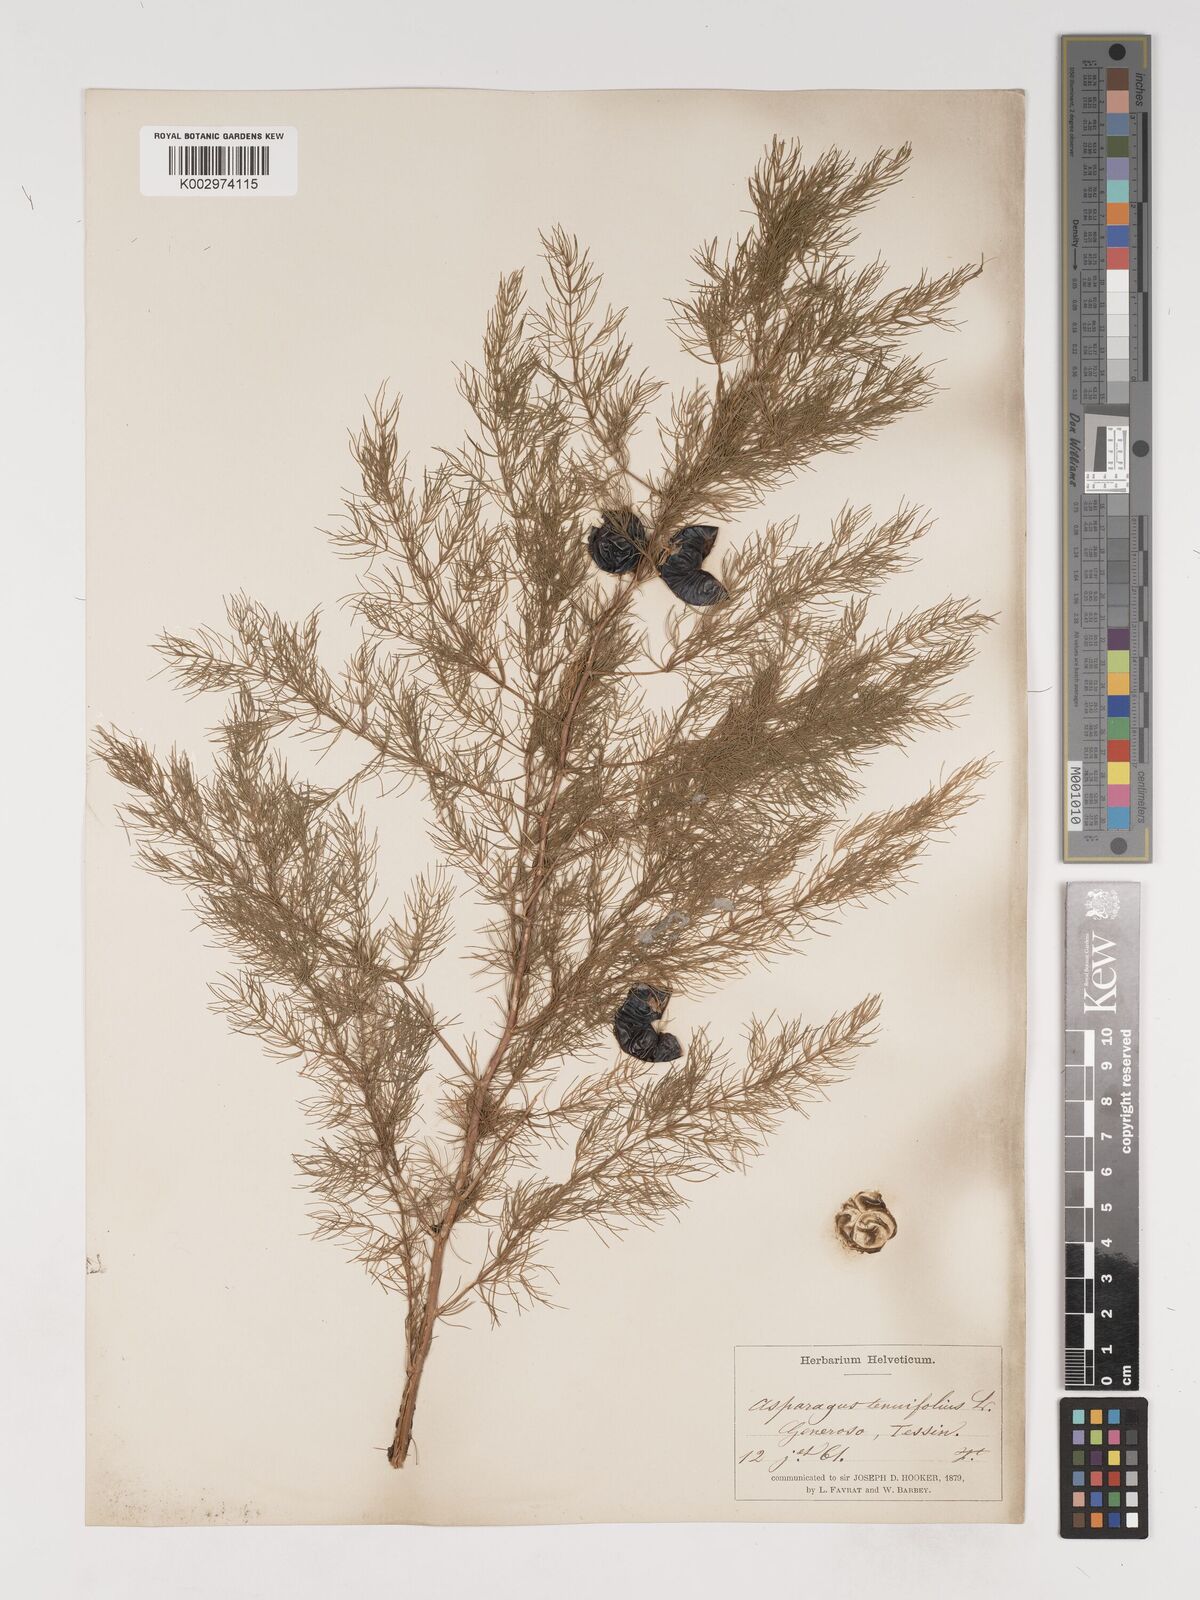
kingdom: Plantae
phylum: Tracheophyta
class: Liliopsida
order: Asparagales
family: Asparagaceae
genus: Asparagus
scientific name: Asparagus tenuifolius
